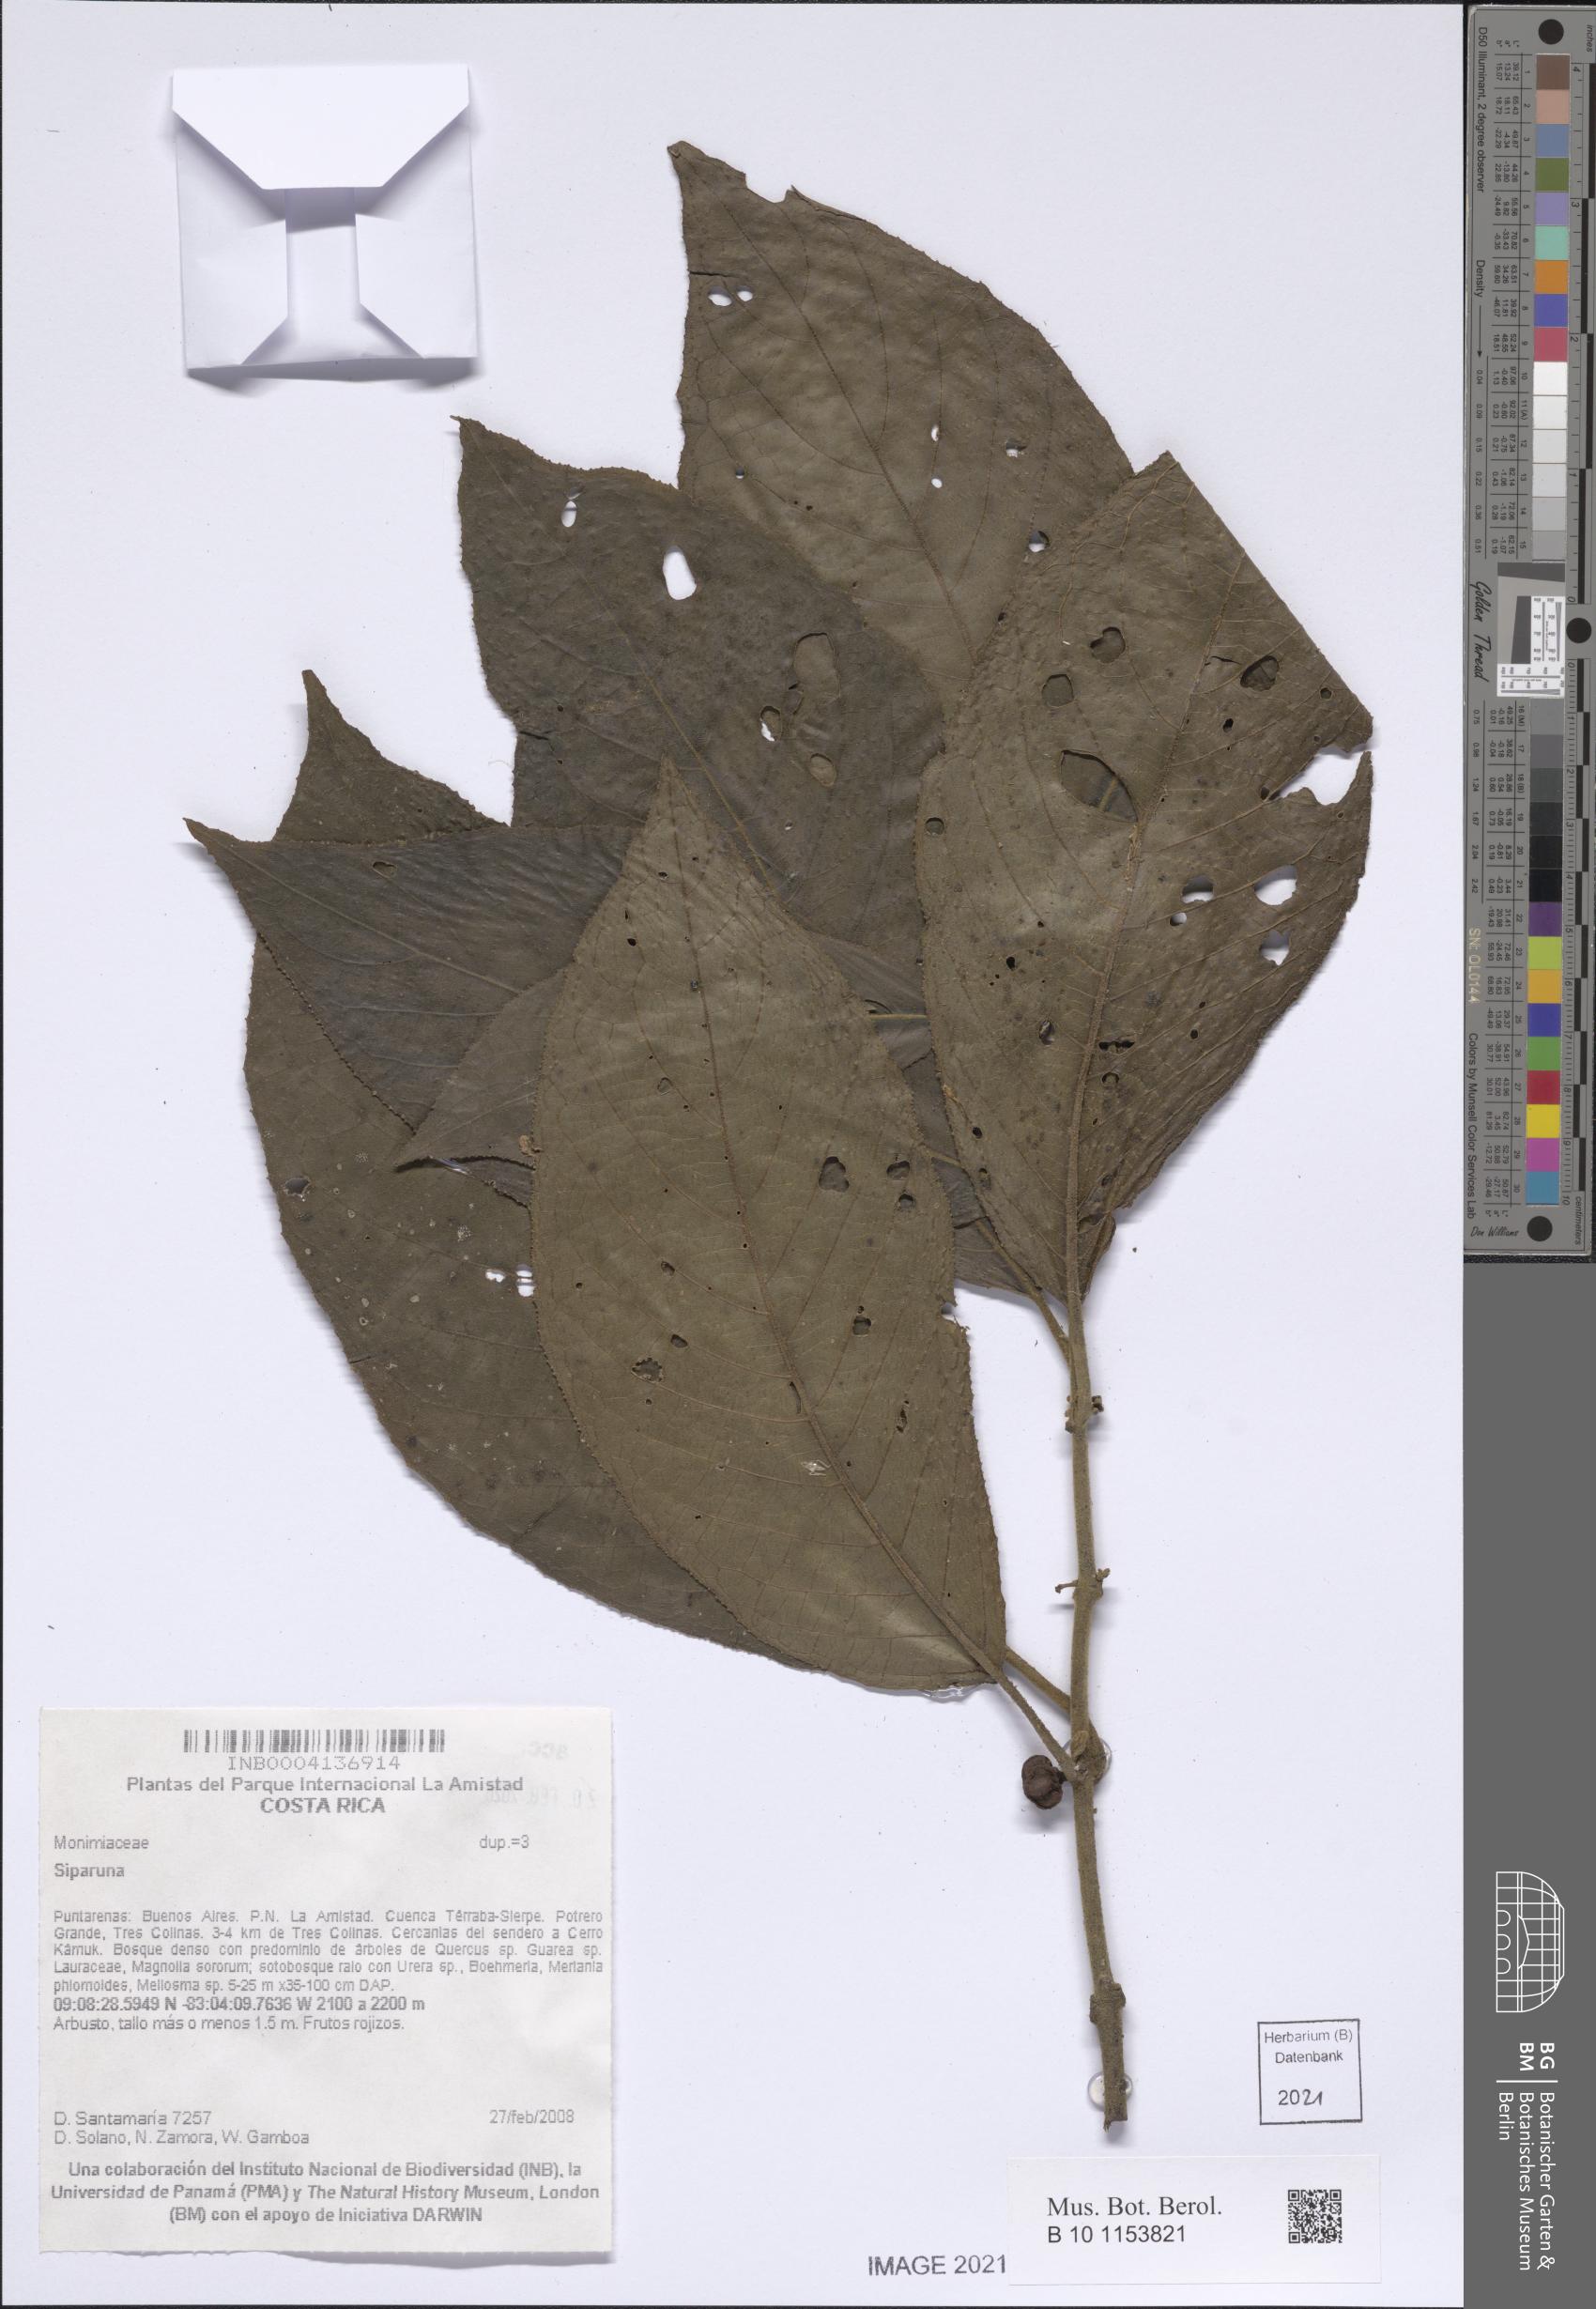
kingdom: Plantae
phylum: Tracheophyta
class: Magnoliopsida
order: Laurales
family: Siparunaceae
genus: Siparuna
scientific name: Siparuna
